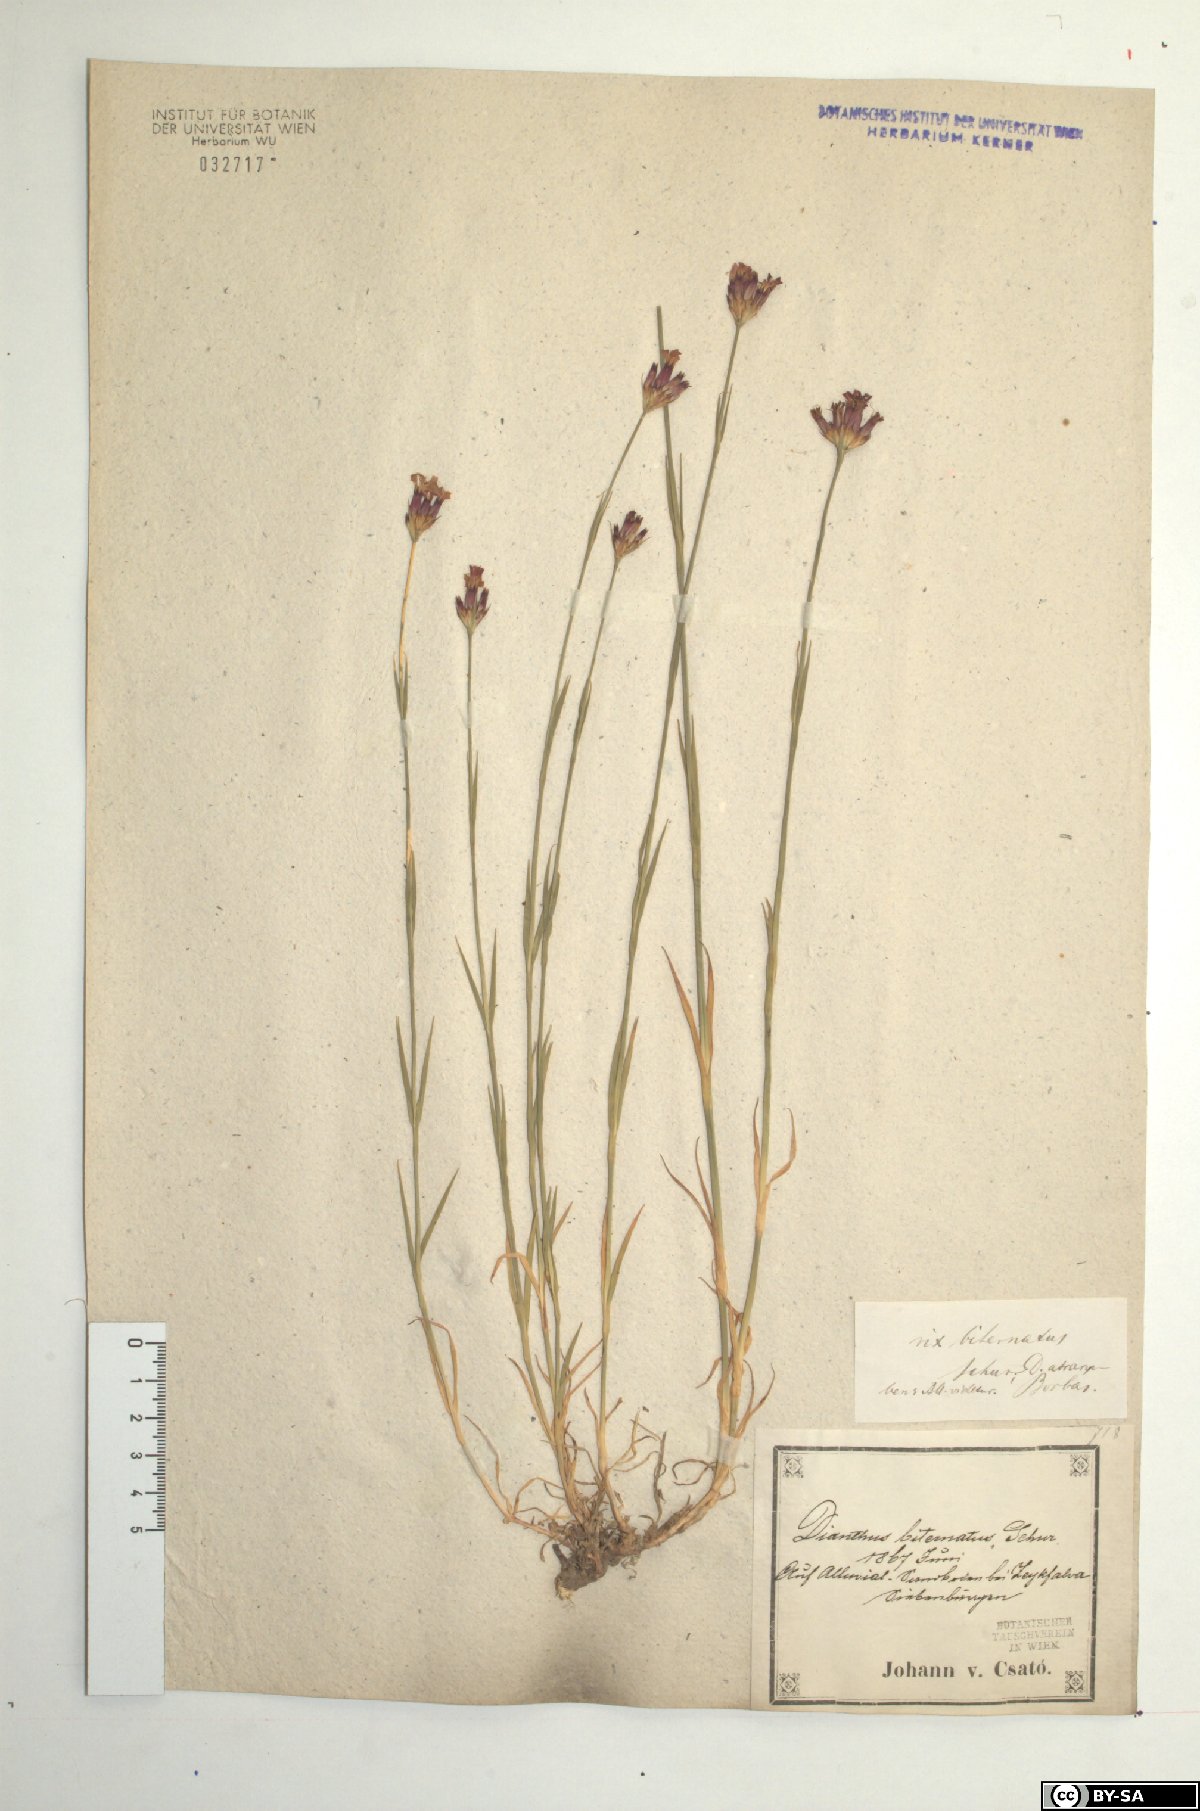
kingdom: Plantae
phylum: Tracheophyta
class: Magnoliopsida
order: Caryophyllales
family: Caryophyllaceae
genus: Dianthus
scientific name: Dianthus pontederae
